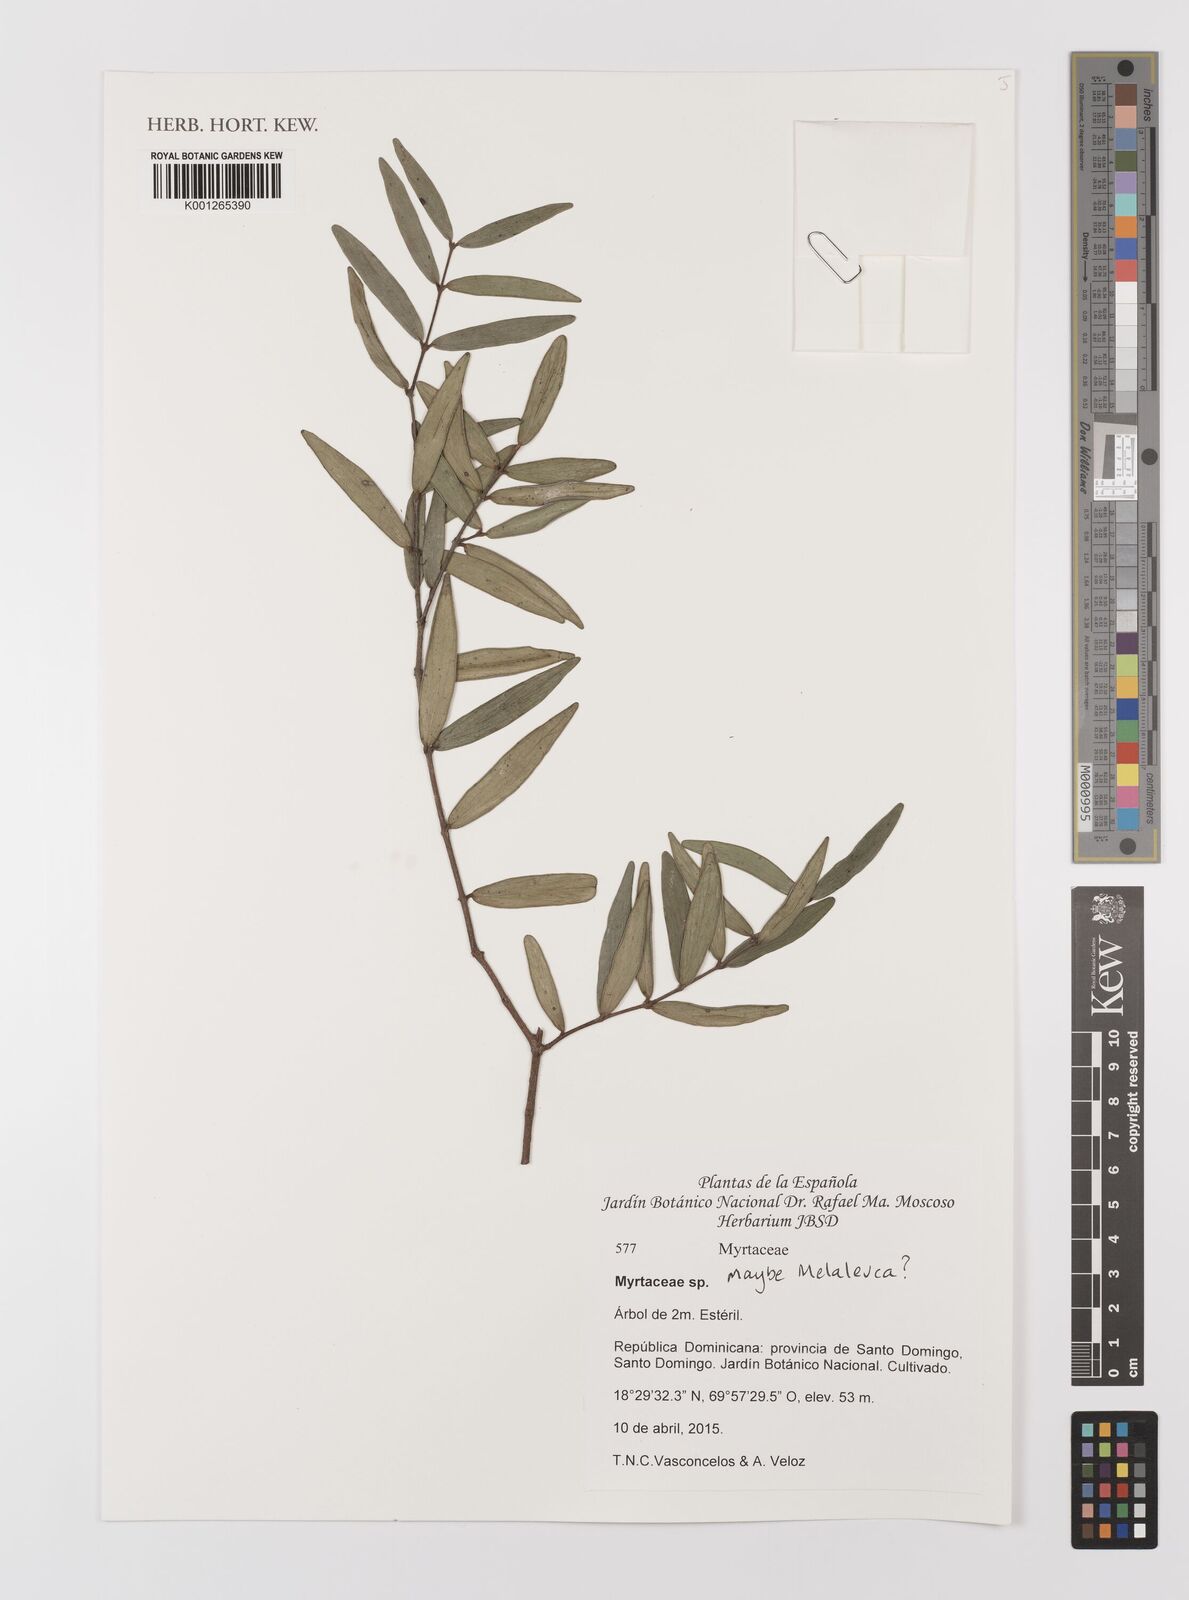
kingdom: Plantae
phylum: Tracheophyta
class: Magnoliopsida
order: Myrtales
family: Myrtaceae
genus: Melaleuca
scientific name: Melaleuca
